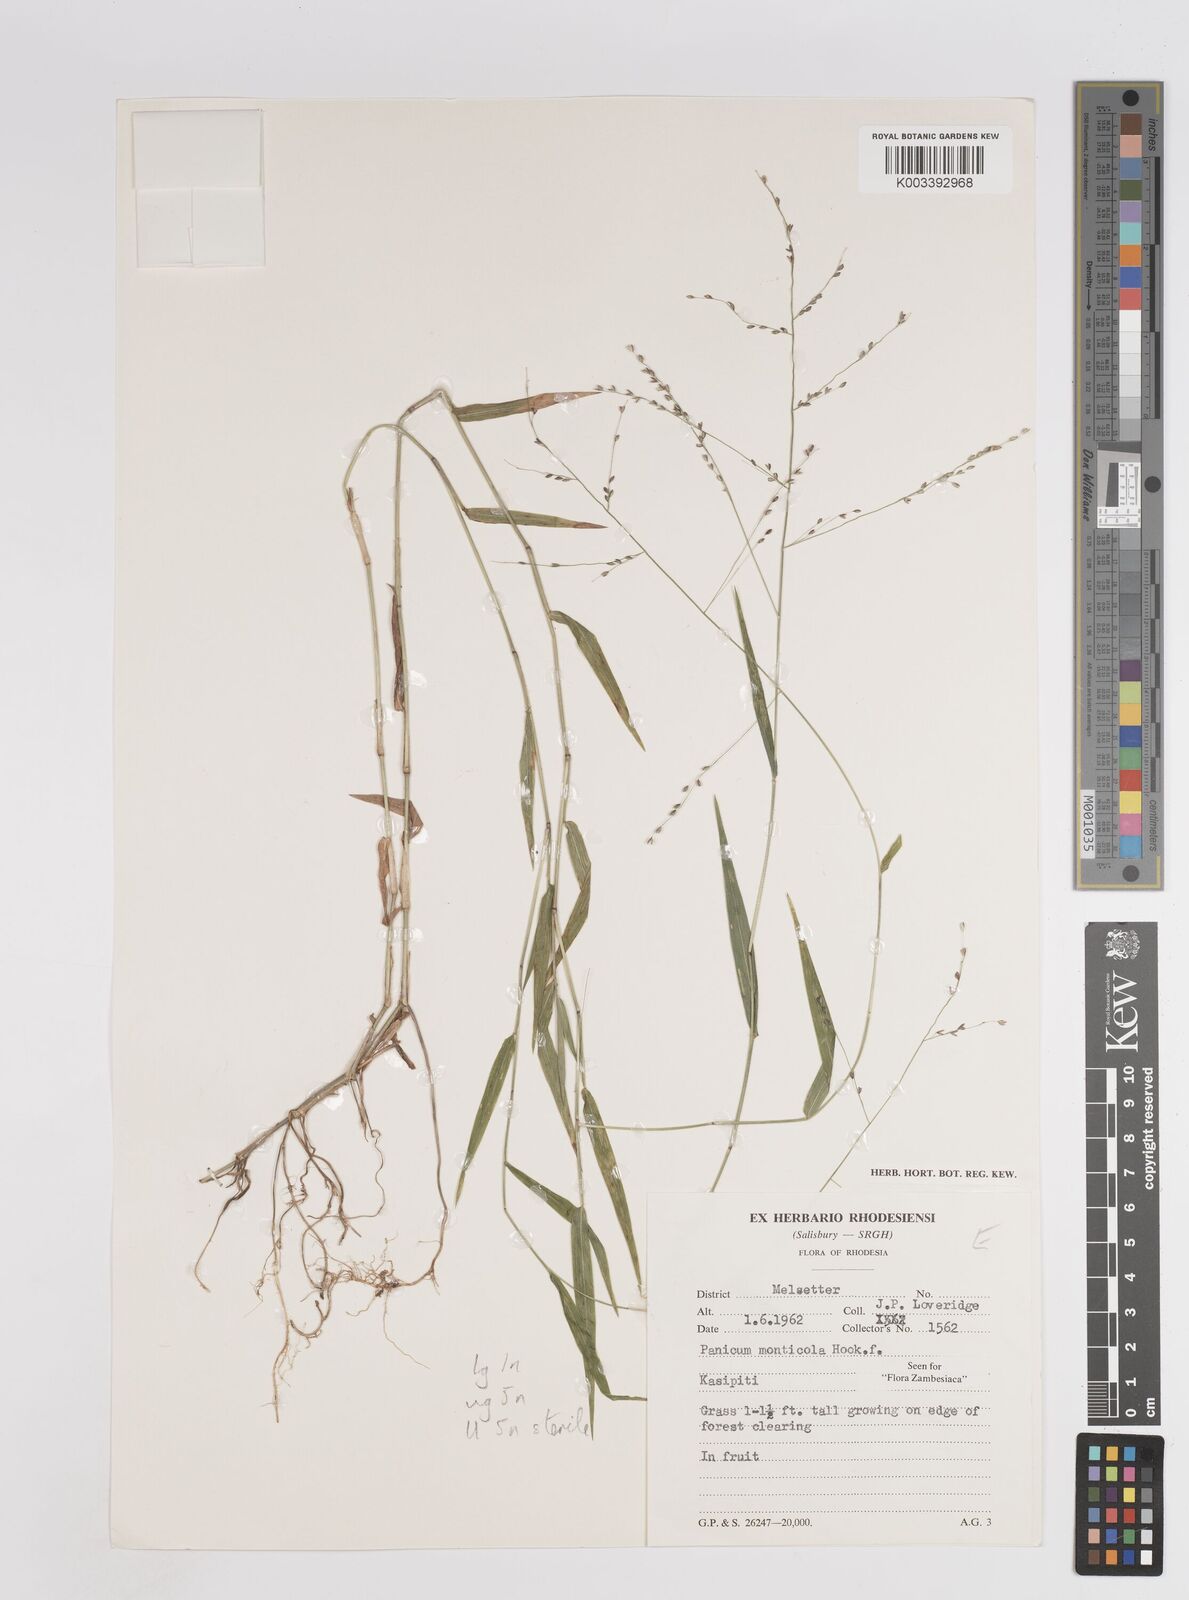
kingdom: Plantae
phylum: Tracheophyta
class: Liliopsida
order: Poales
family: Poaceae
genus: Panicum
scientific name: Panicum monticola
